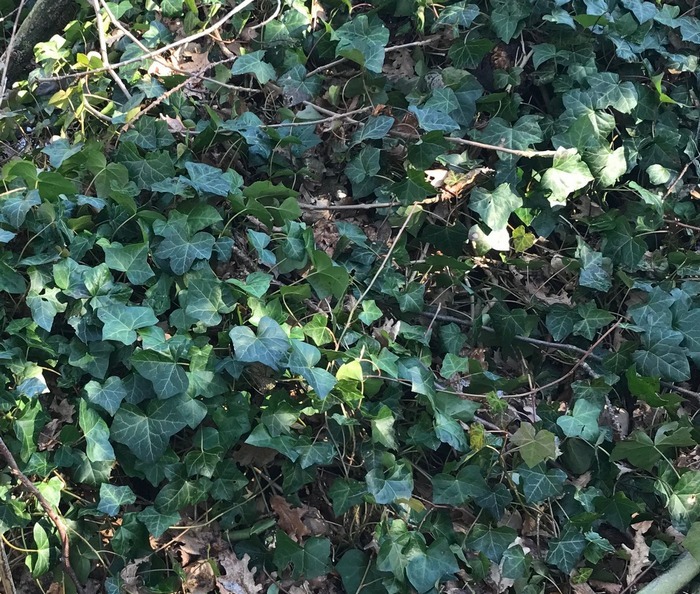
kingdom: Plantae
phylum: Tracheophyta
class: Magnoliopsida
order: Apiales
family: Araliaceae
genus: Hedera
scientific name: Hedera helix
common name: Vedbend
